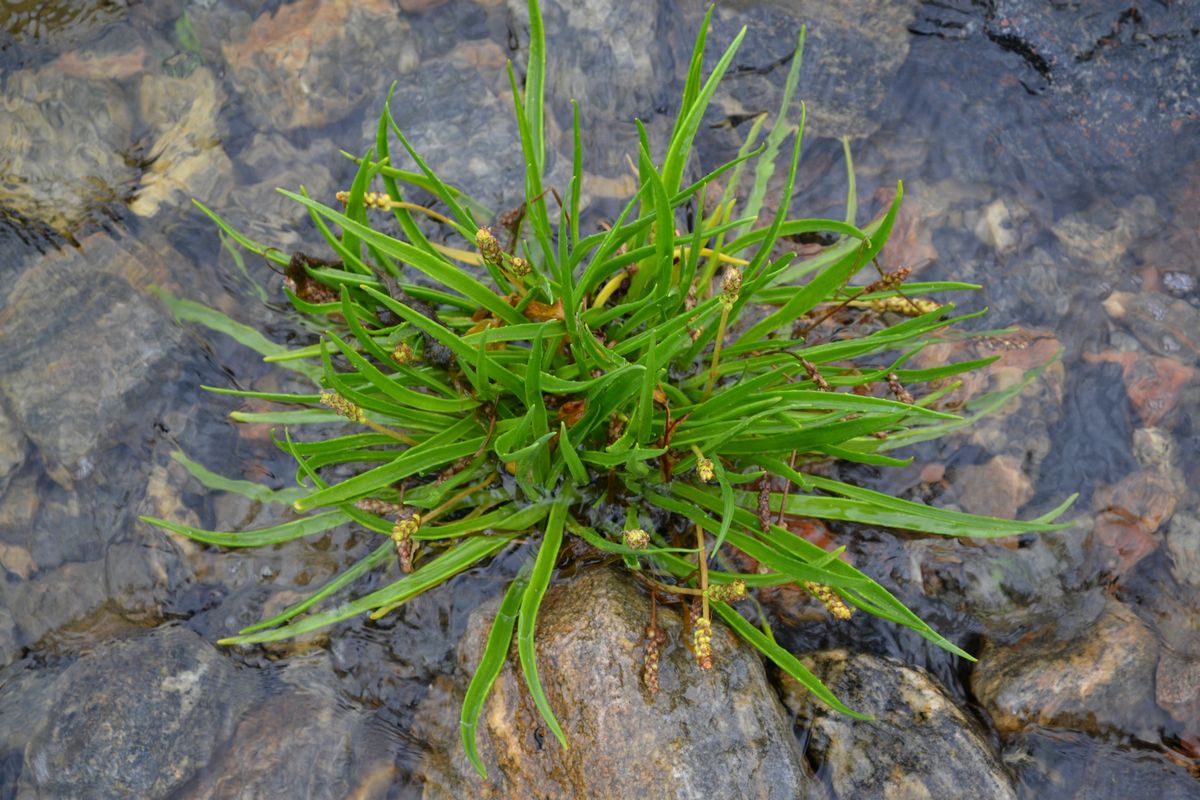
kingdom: Plantae
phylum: Tracheophyta
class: Magnoliopsida
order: Lamiales
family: Plantaginaceae
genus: Plantago
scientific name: Plantago maritima
